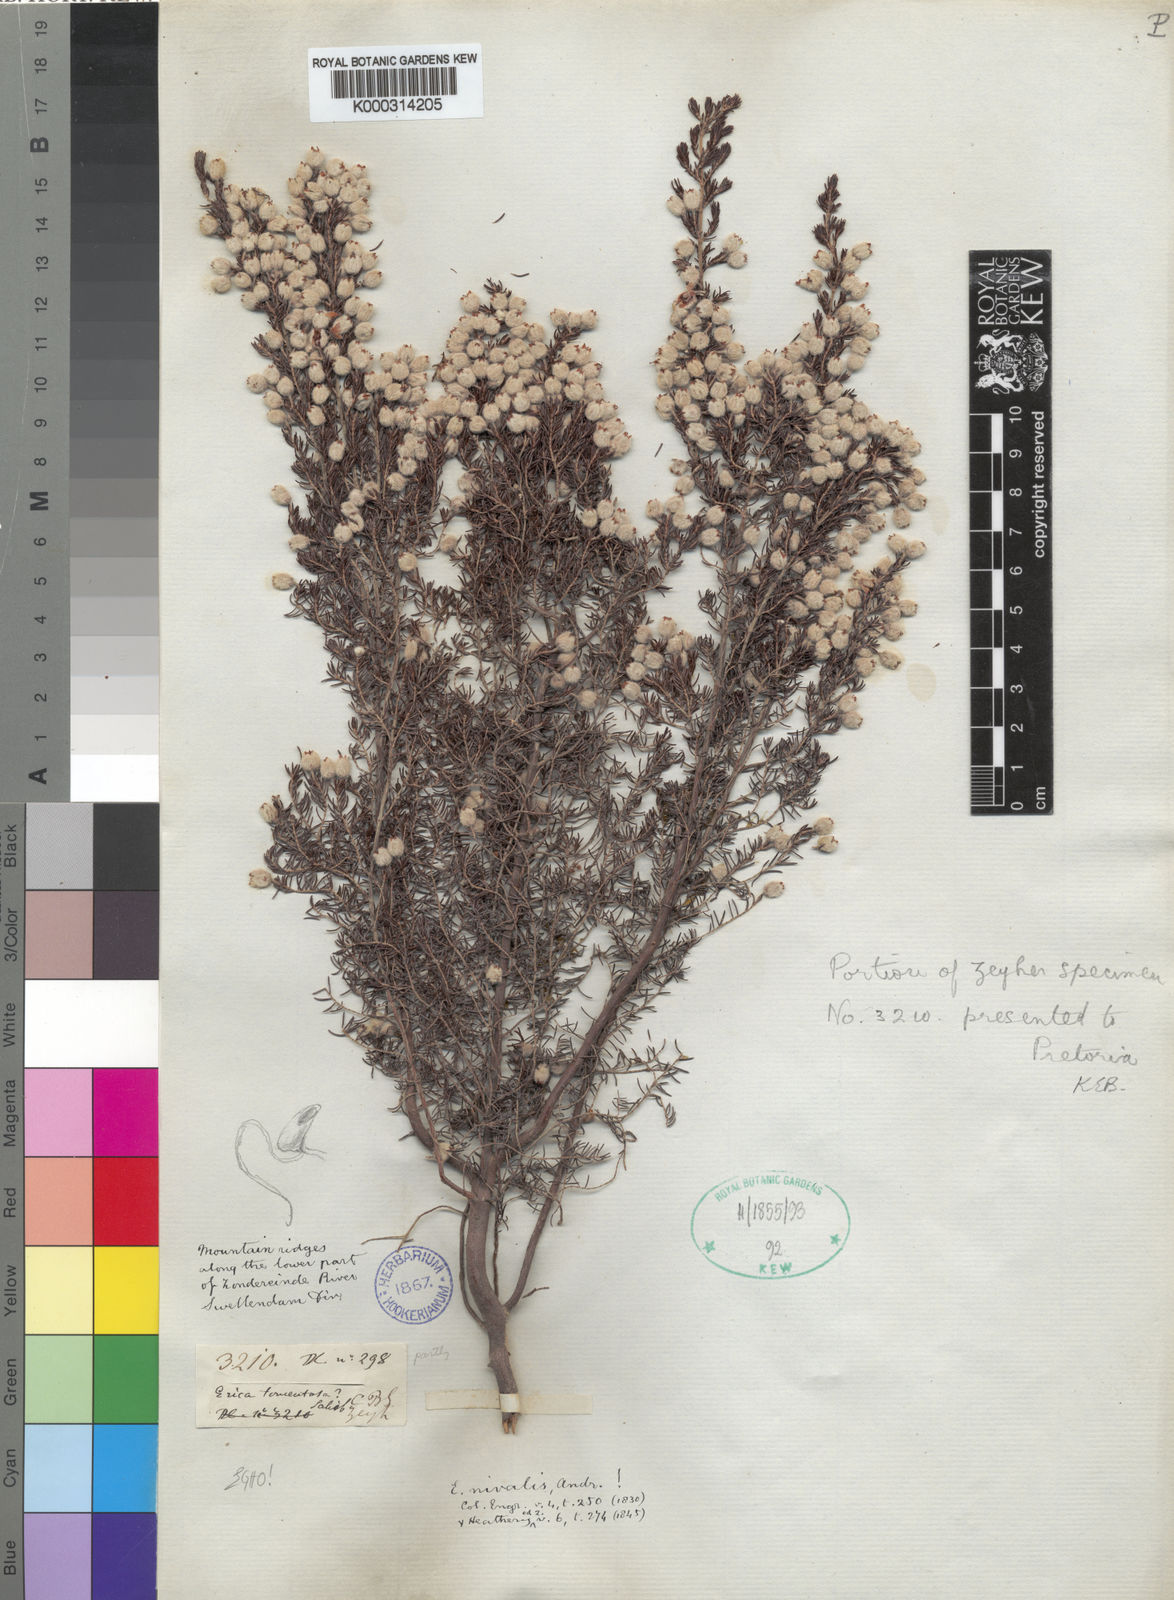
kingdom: Plantae
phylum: Tracheophyta
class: Magnoliopsida
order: Ericales
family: Ericaceae
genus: Erica
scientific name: Erica nigrimontana
